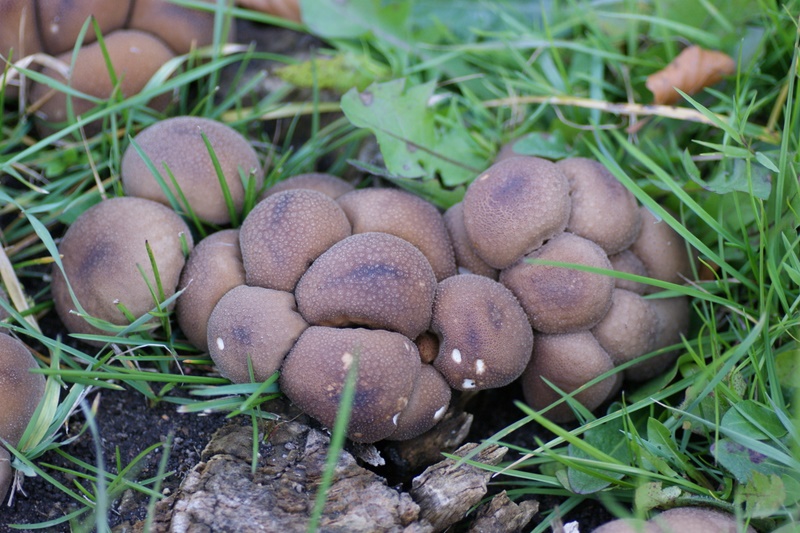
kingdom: Fungi
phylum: Basidiomycota
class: Agaricomycetes
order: Agaricales
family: Lycoperdaceae
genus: Apioperdon
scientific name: Apioperdon pyriforme
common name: pære-støvbold
